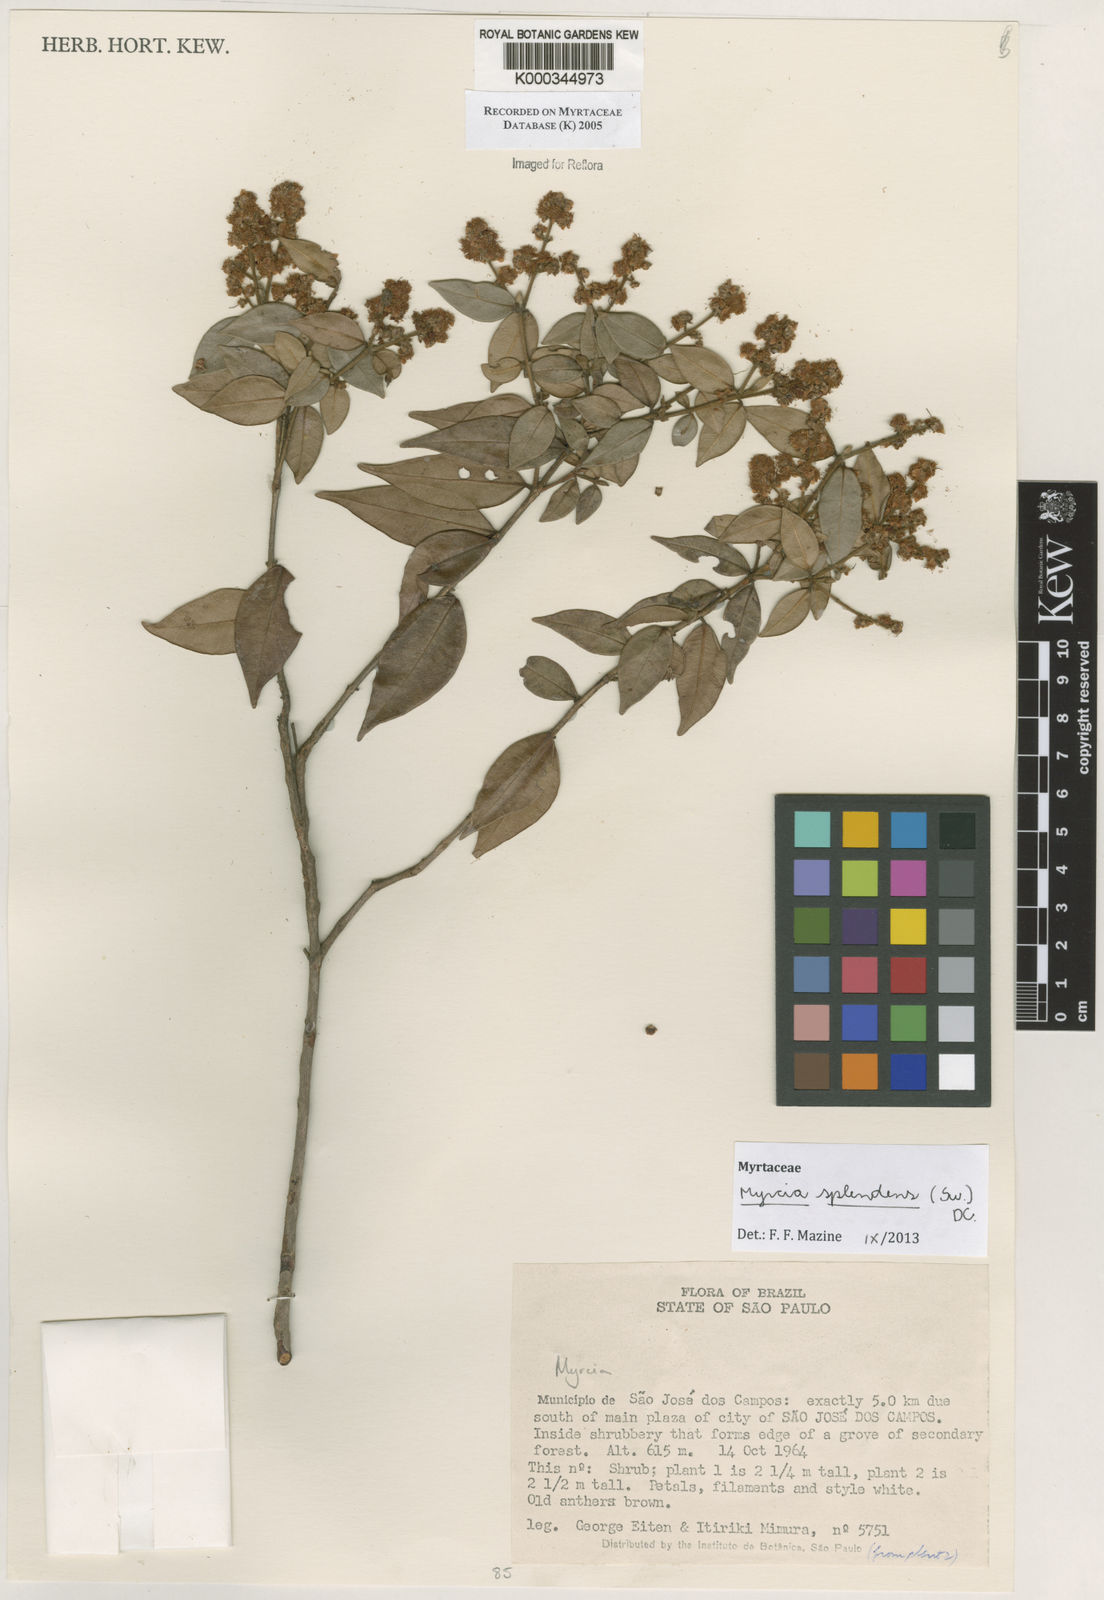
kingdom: Plantae
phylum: Tracheophyta
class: Magnoliopsida
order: Myrtales
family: Myrtaceae
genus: Myrcia
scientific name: Myrcia
